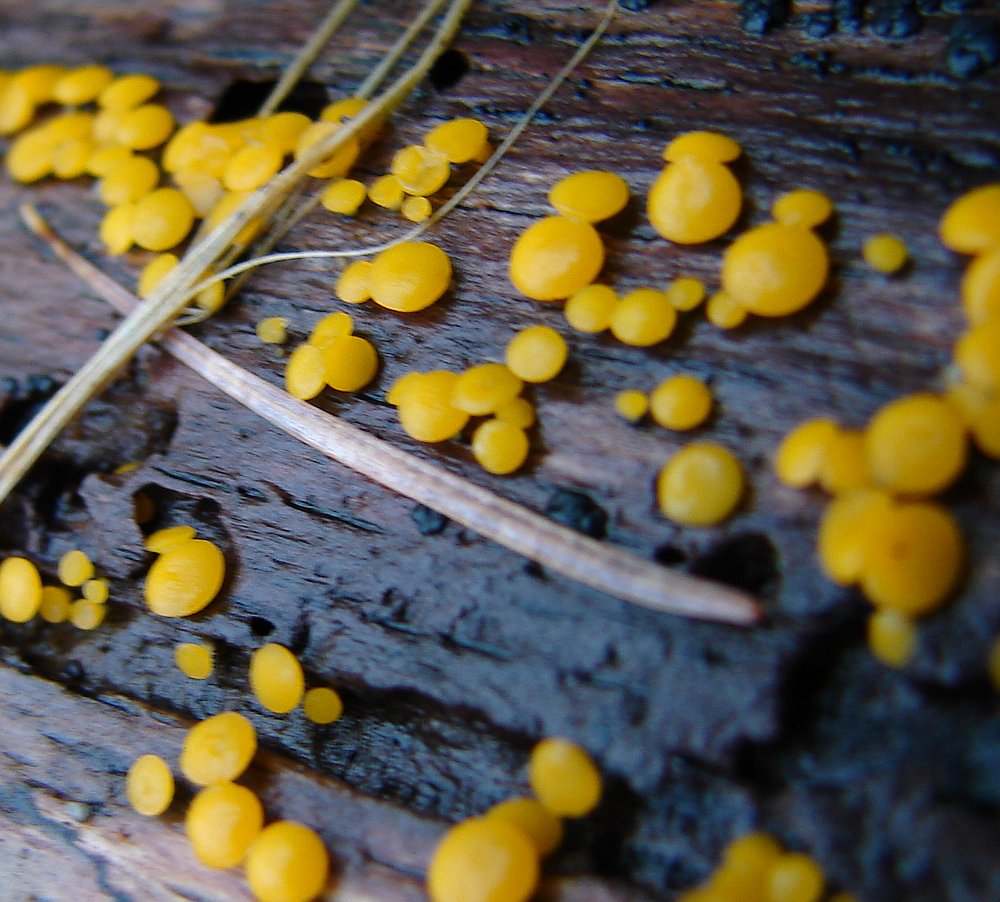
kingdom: Fungi
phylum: Ascomycota
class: Leotiomycetes
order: Helotiales
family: Pezizellaceae
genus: Calycina
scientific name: Calycina citrina
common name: almindelig gulskive
